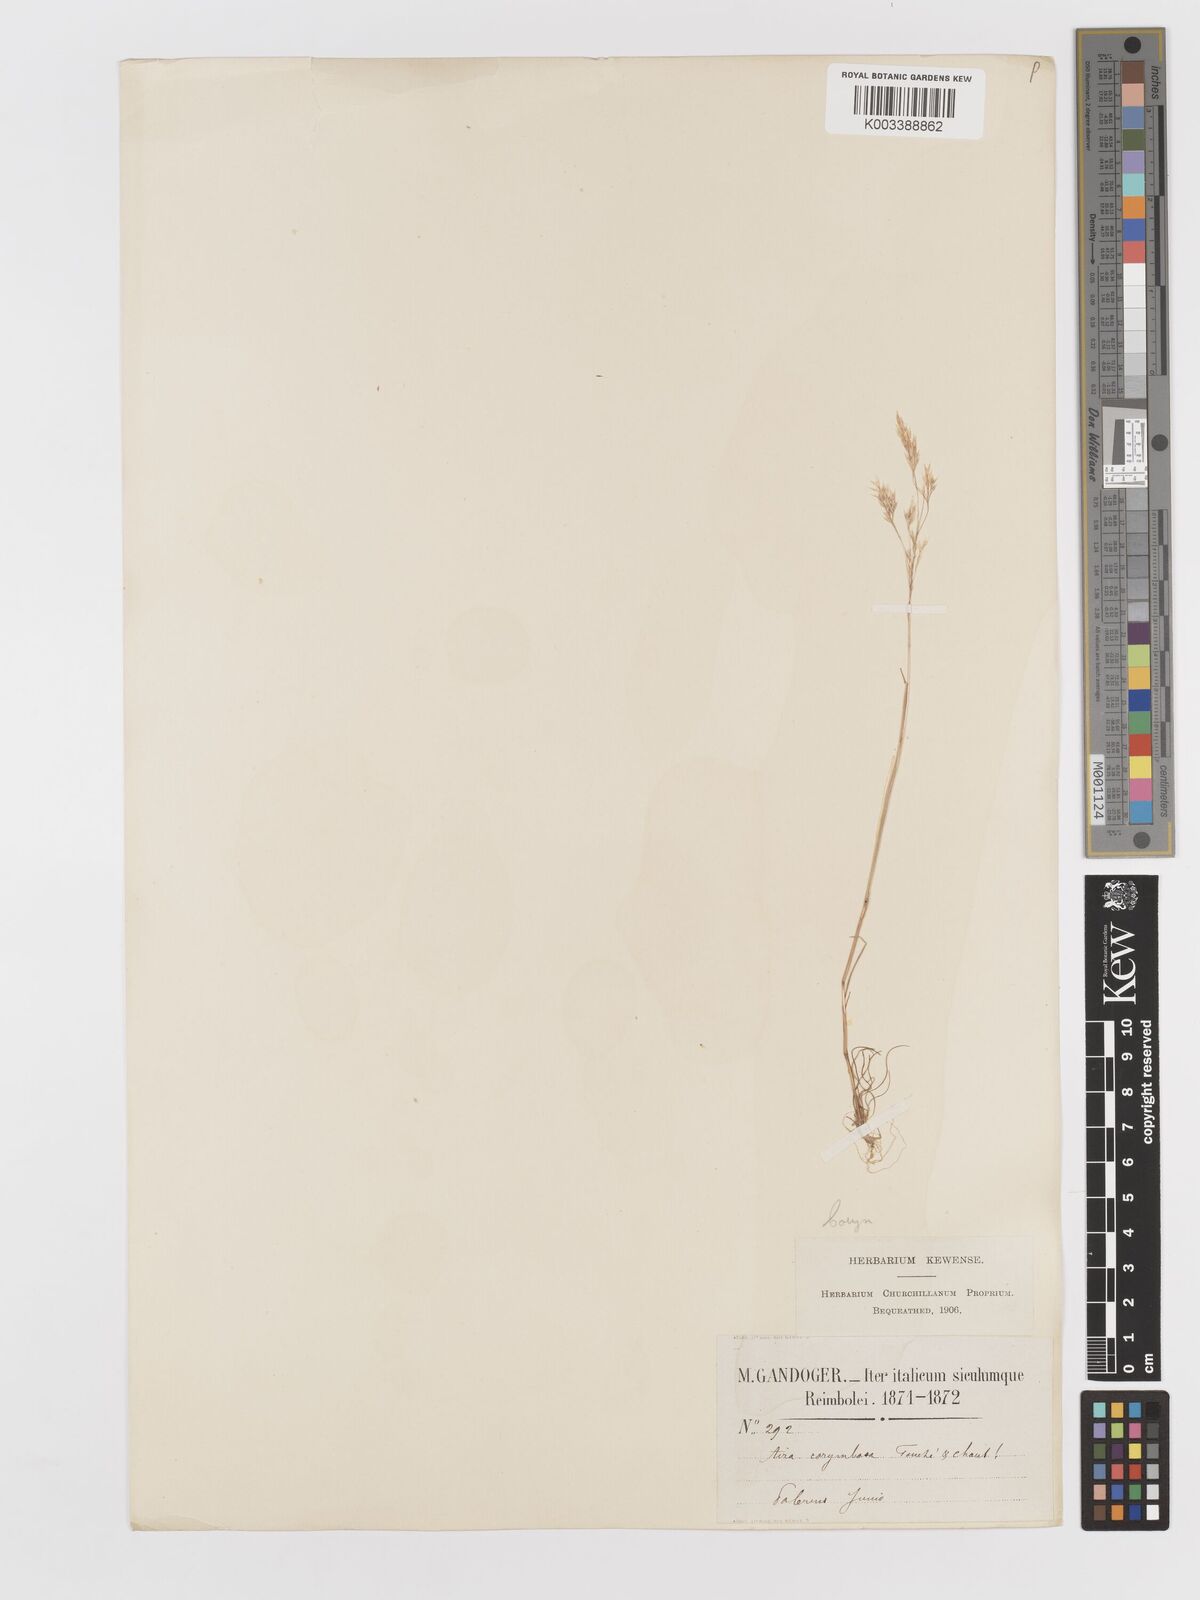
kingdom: Plantae
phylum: Tracheophyta
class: Liliopsida
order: Poales
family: Poaceae
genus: Corynephorus
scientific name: Corynephorus divaricatus
